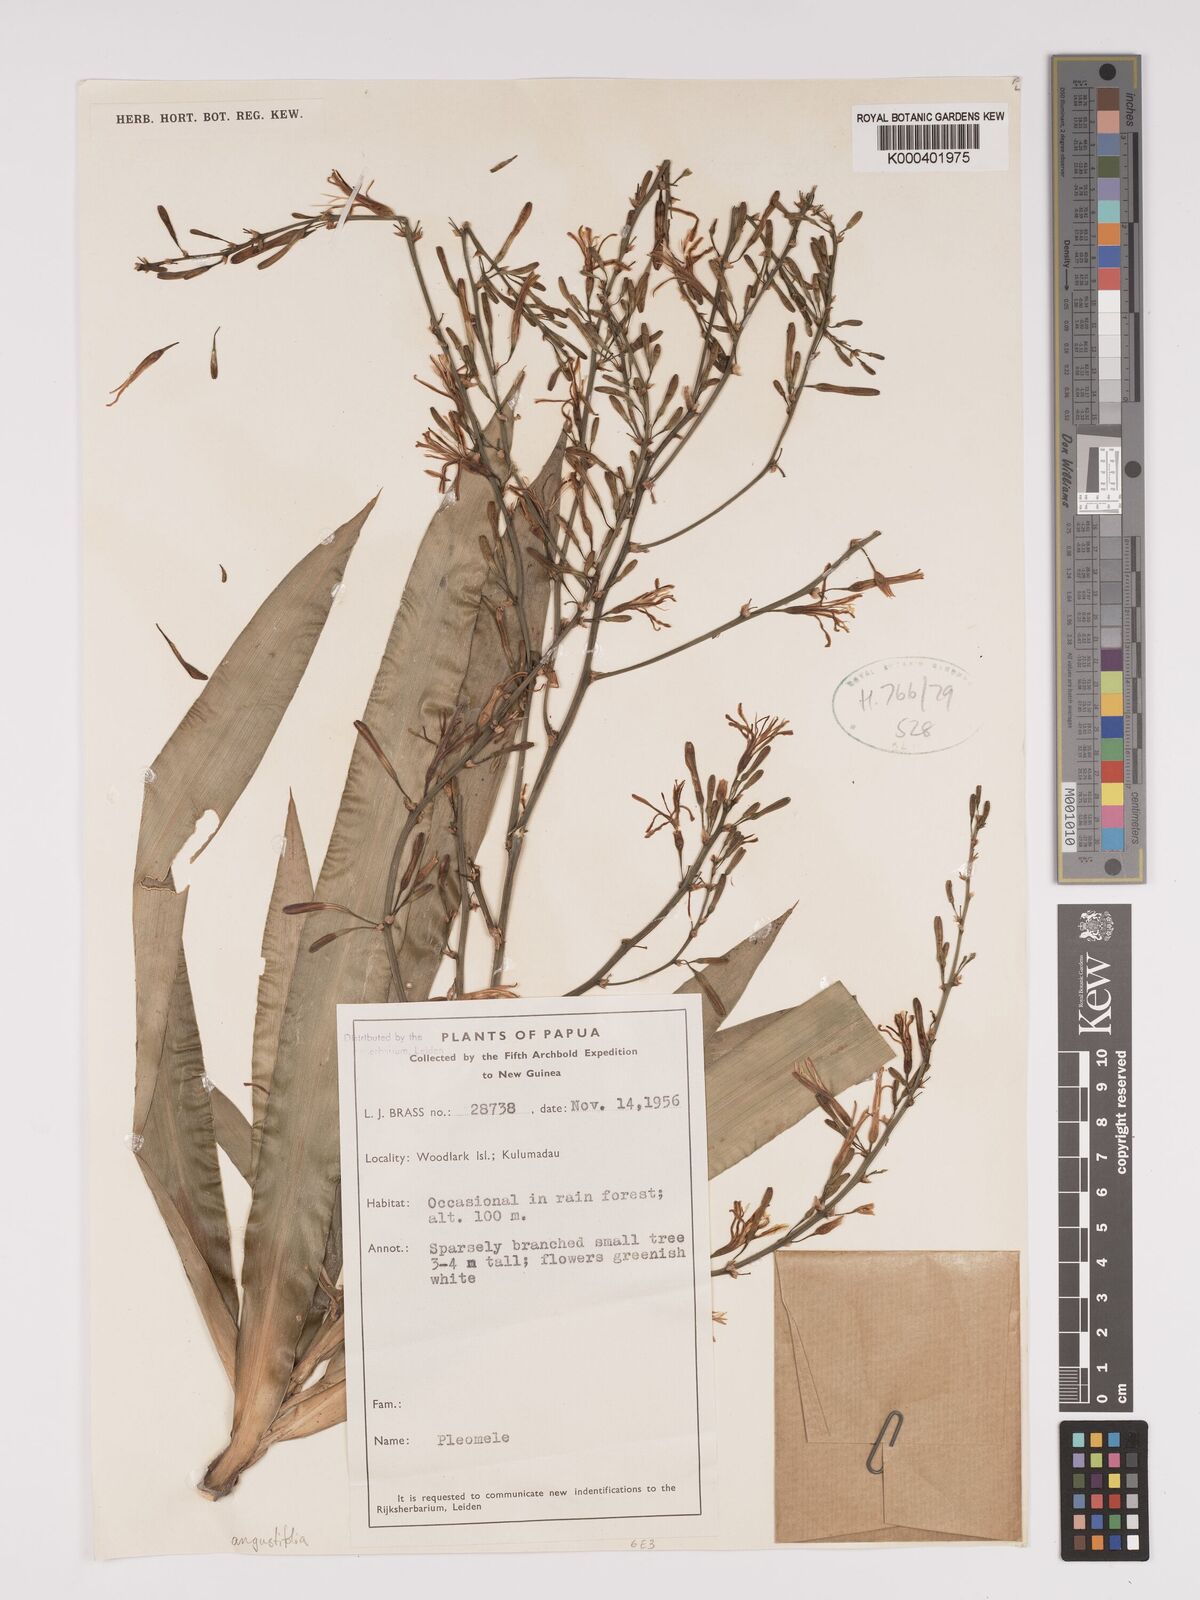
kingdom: Plantae
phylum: Tracheophyta
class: Liliopsida
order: Asparagales
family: Asparagaceae
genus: Dracaena
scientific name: Dracaena angustifolia
